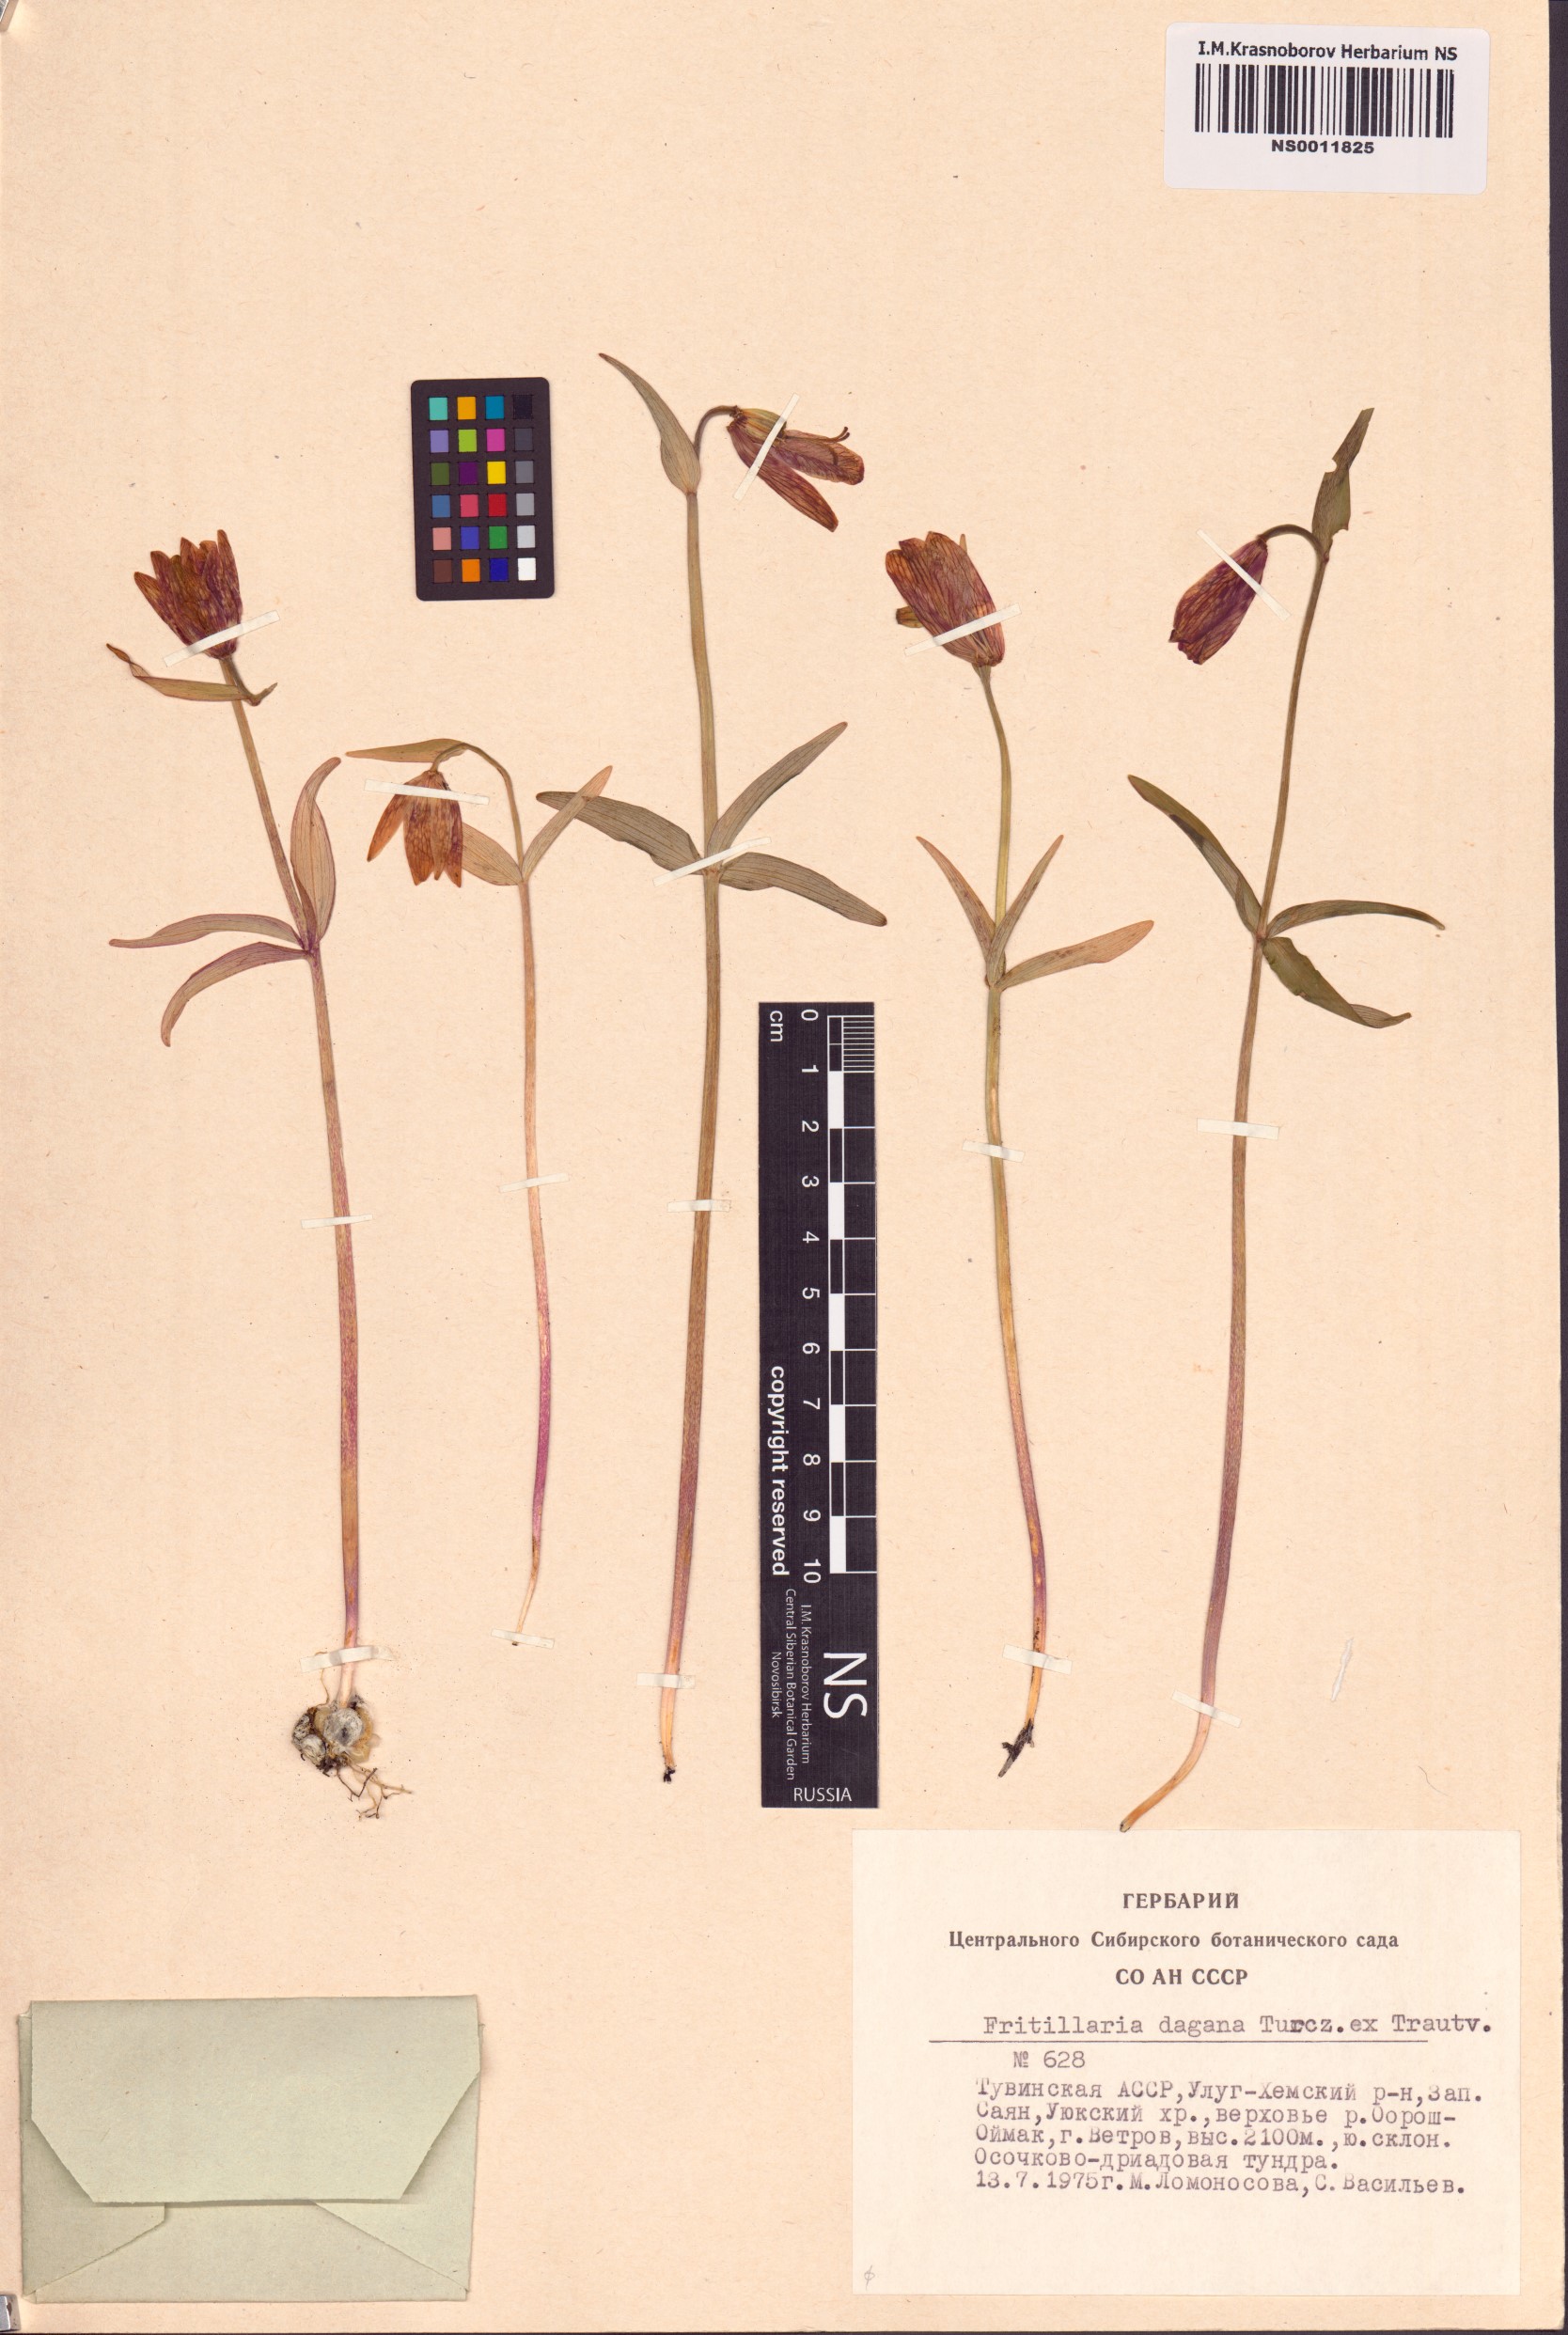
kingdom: Plantae
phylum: Tracheophyta
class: Liliopsida
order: Liliales
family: Liliaceae
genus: Fritillaria
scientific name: Fritillaria dagana
